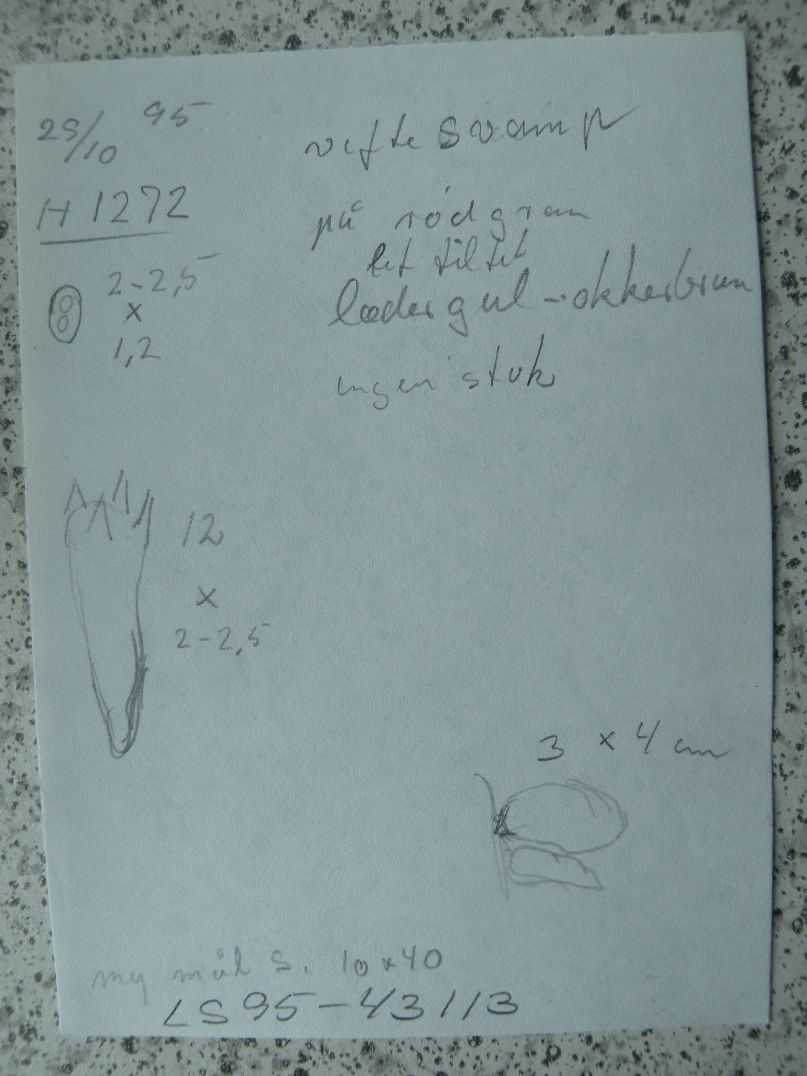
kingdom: Fungi
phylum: Basidiomycota
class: Agaricomycetes
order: Boletales
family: Tapinellaceae
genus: Tapinella
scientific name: Tapinella panuoides
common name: tømmer-viftesvamp
